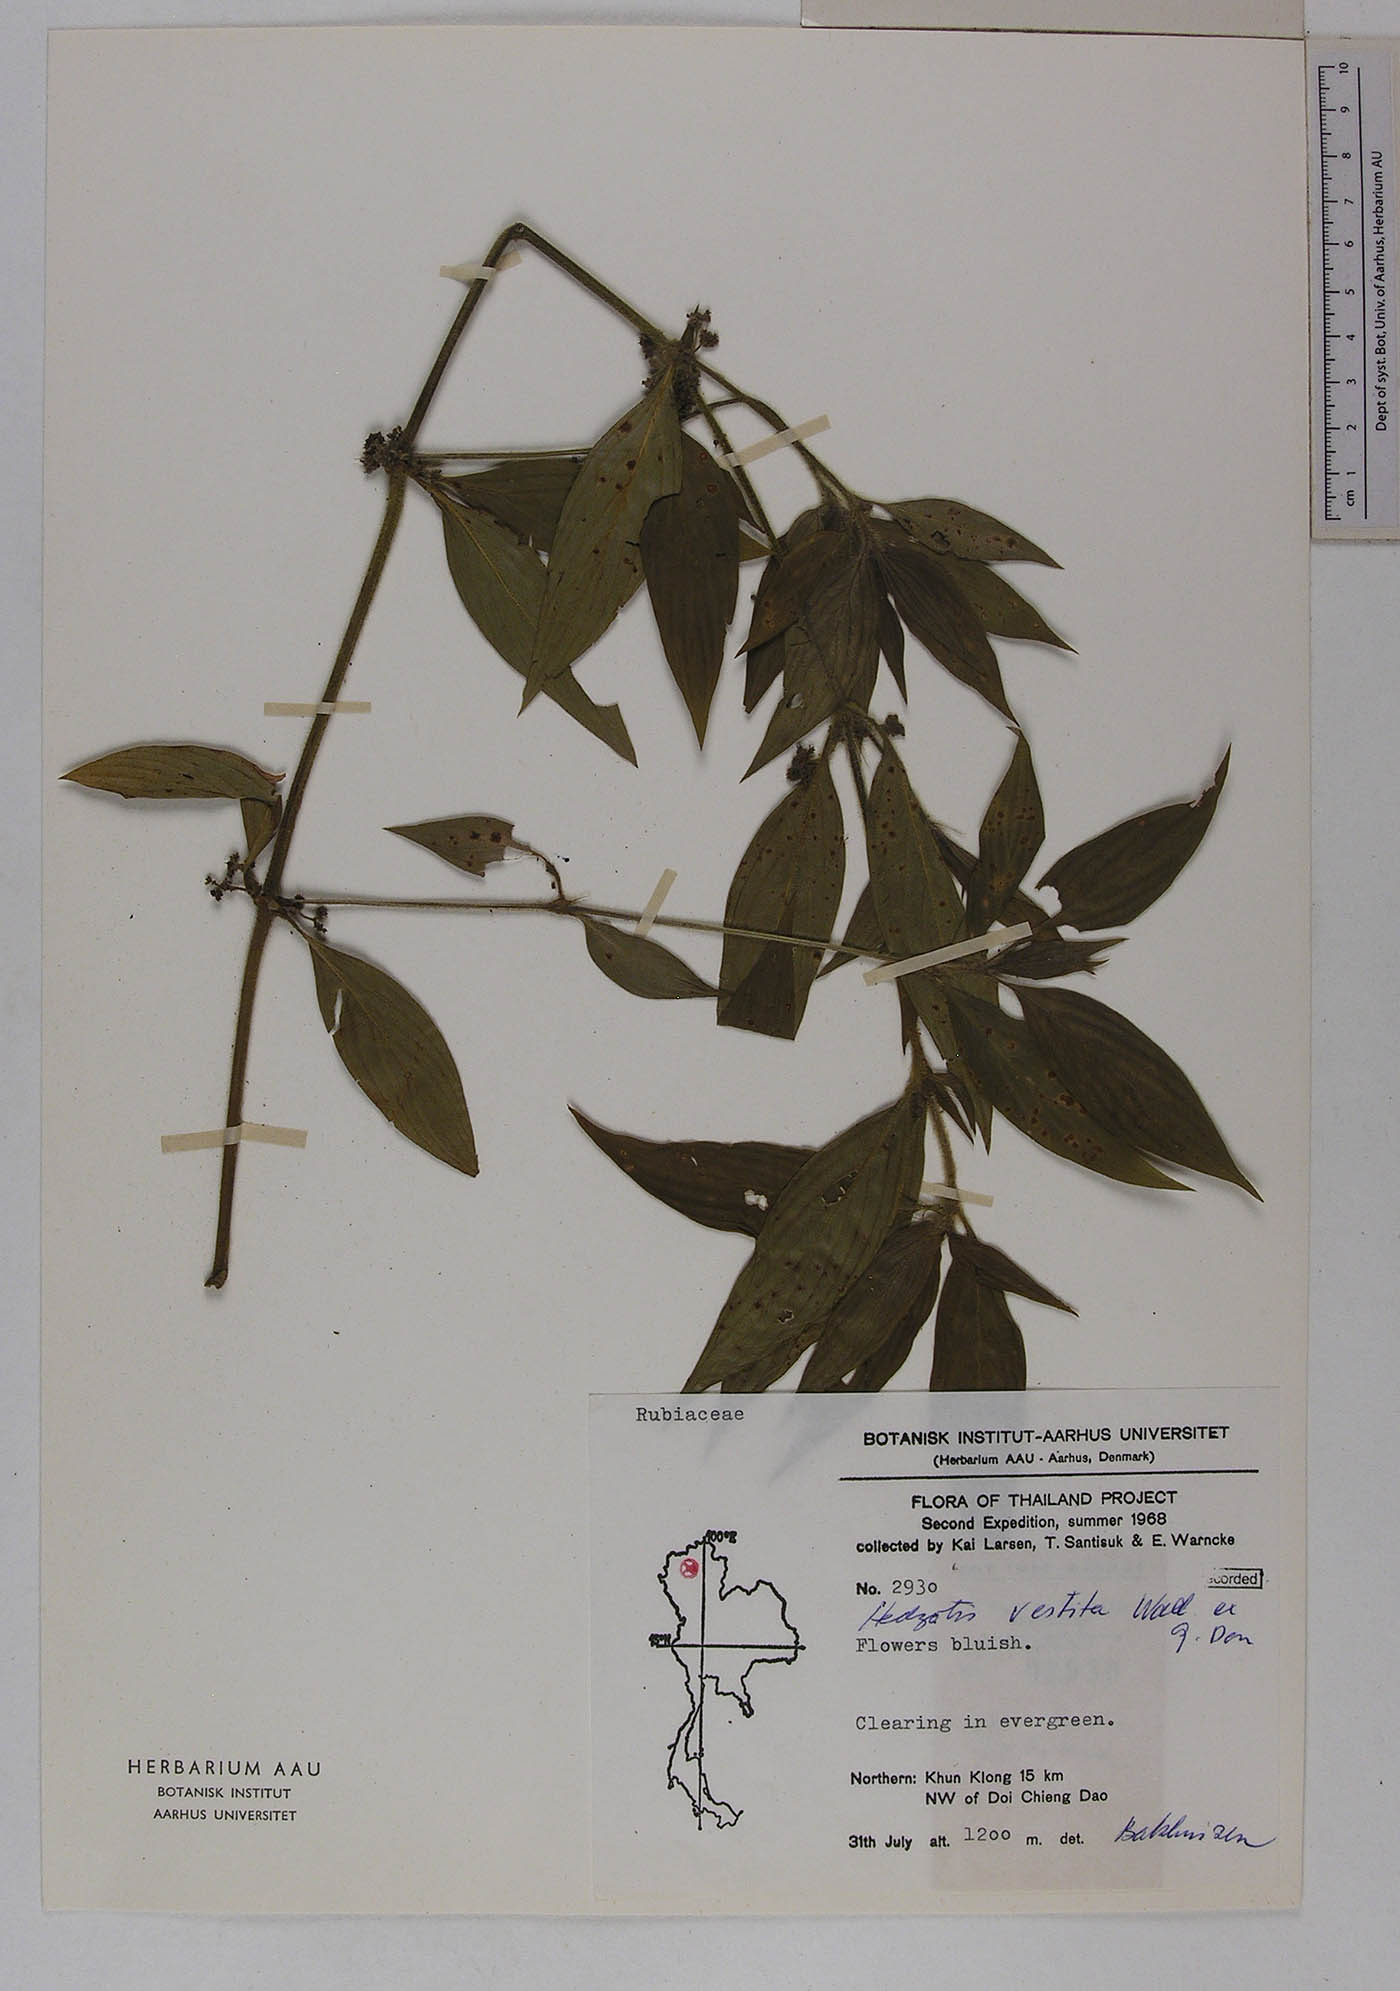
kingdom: Plantae
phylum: Tracheophyta
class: Magnoliopsida
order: Gentianales
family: Rubiaceae
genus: Exallage
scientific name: Exallage cristata
